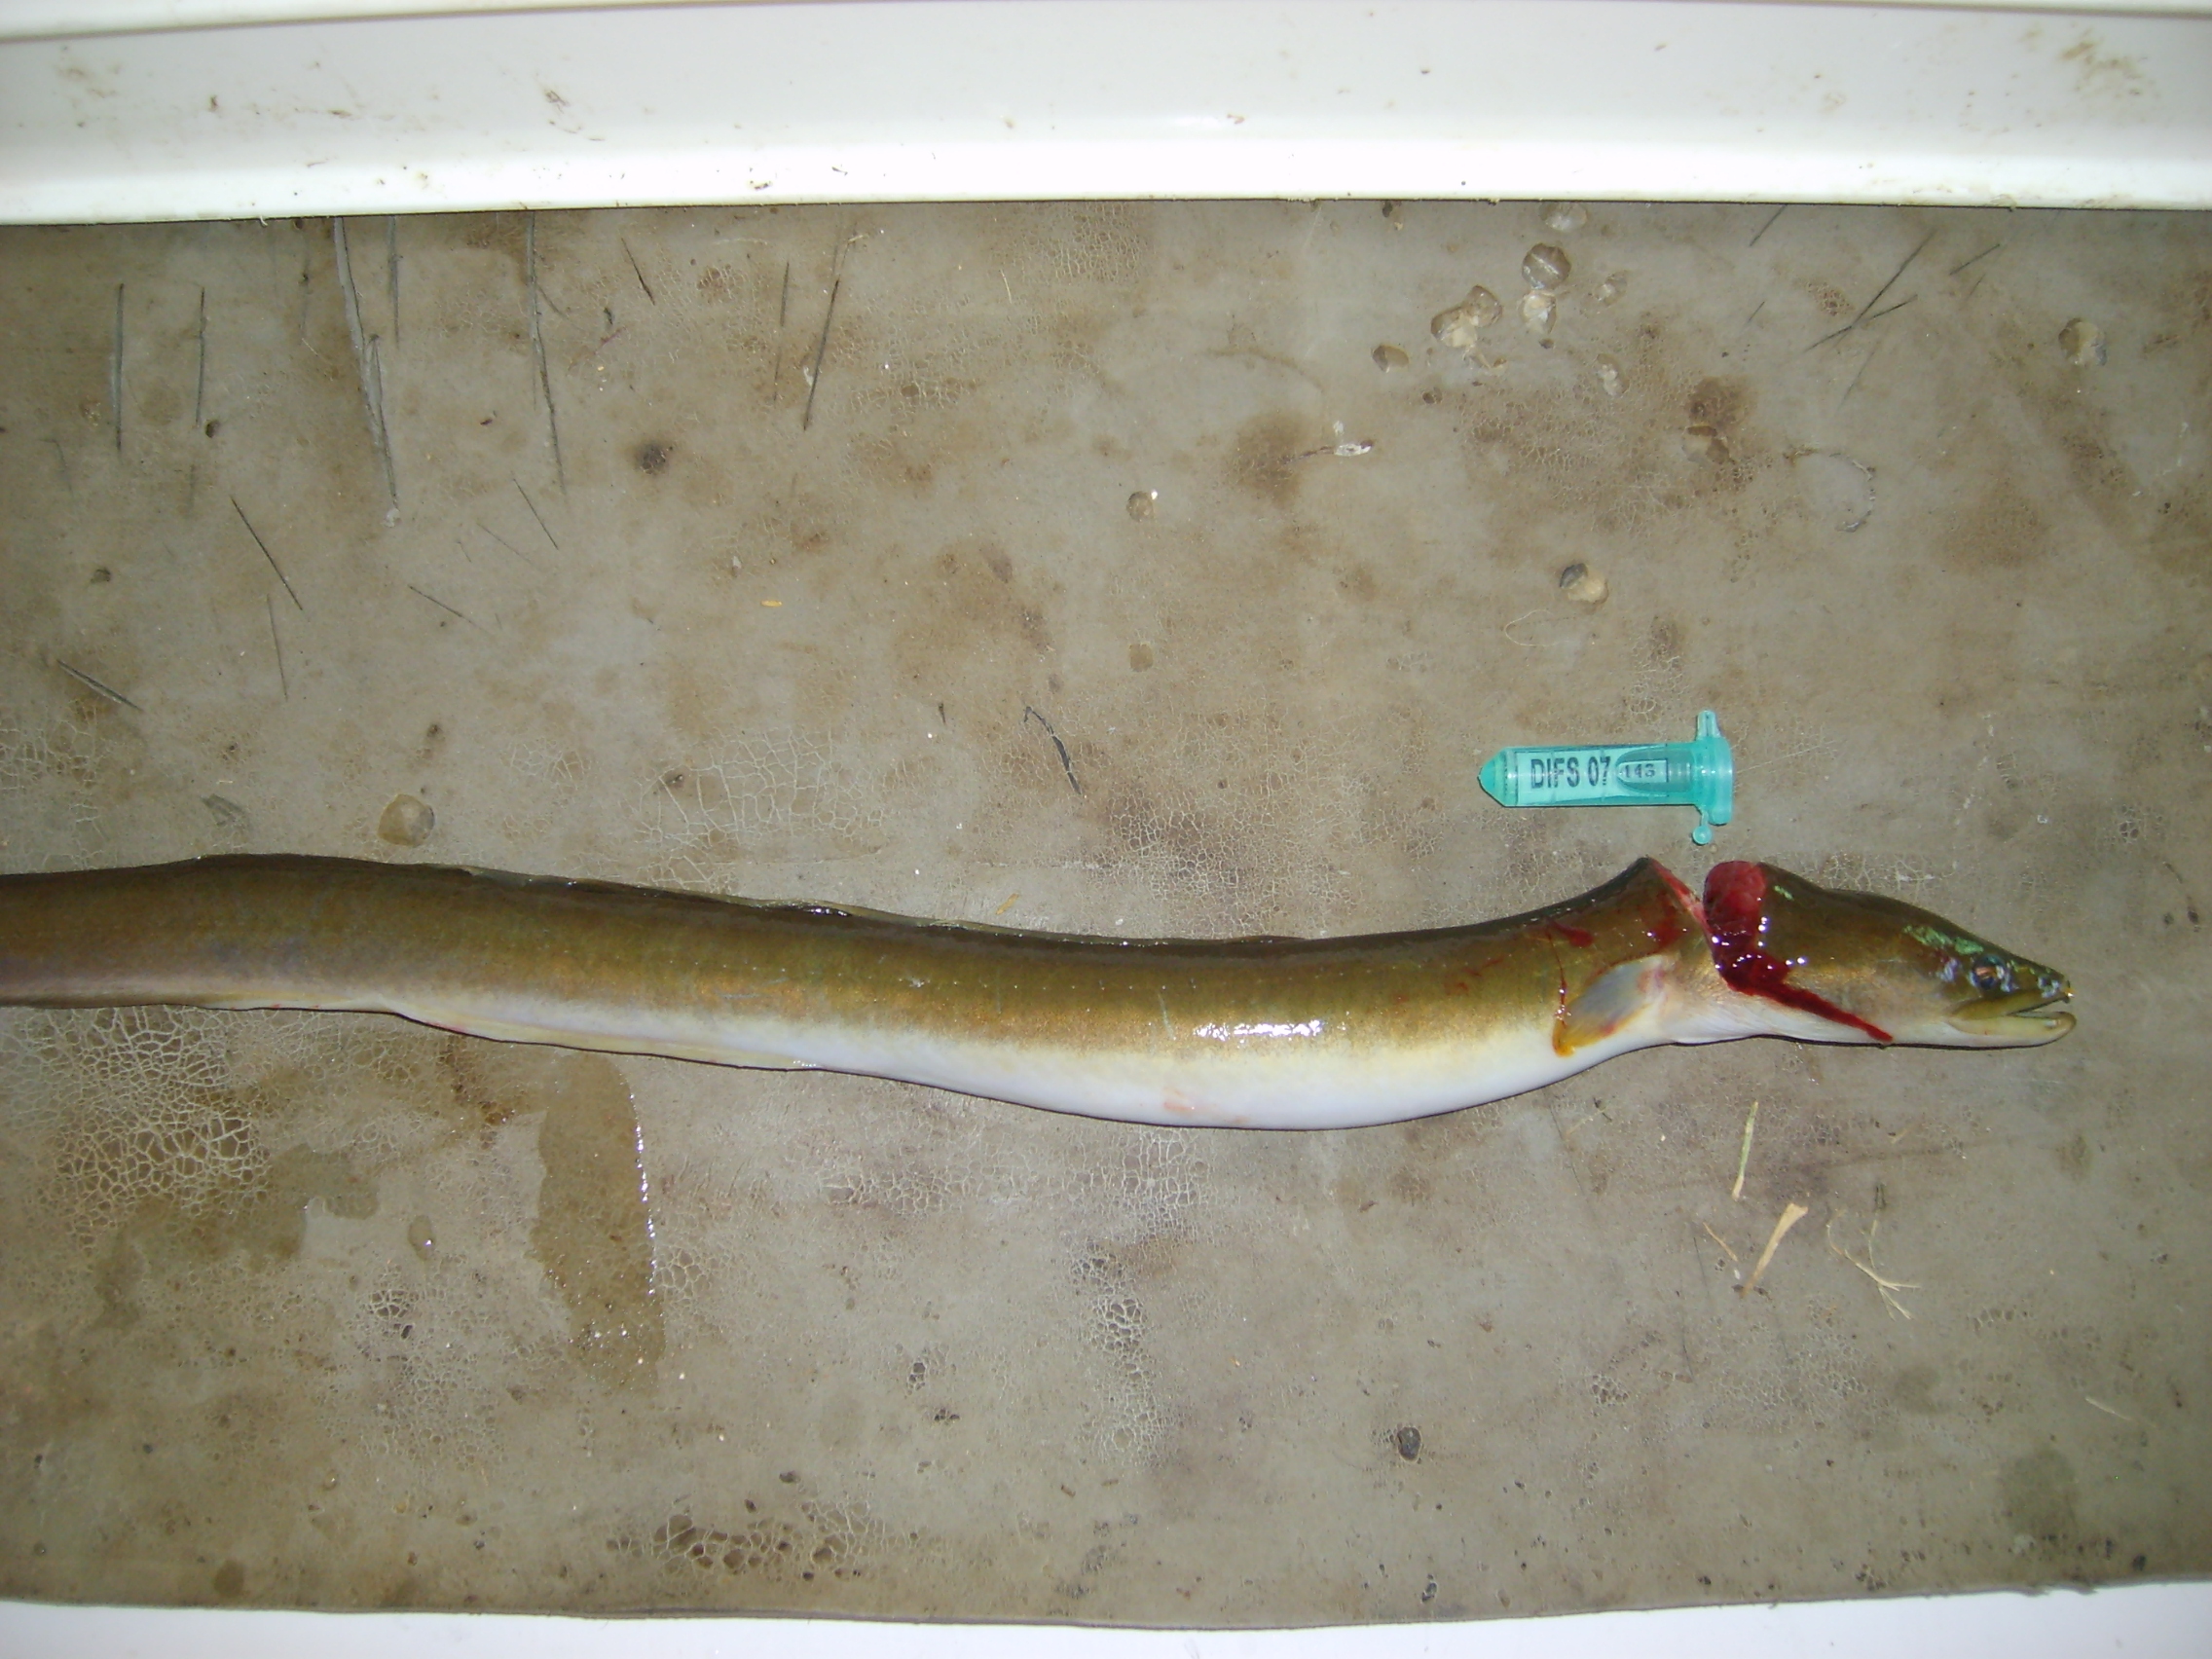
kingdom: Animalia
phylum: Chordata
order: Anguilliformes
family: Anguillidae
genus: Anguilla
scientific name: Anguilla mossambica
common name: African longfin eel
